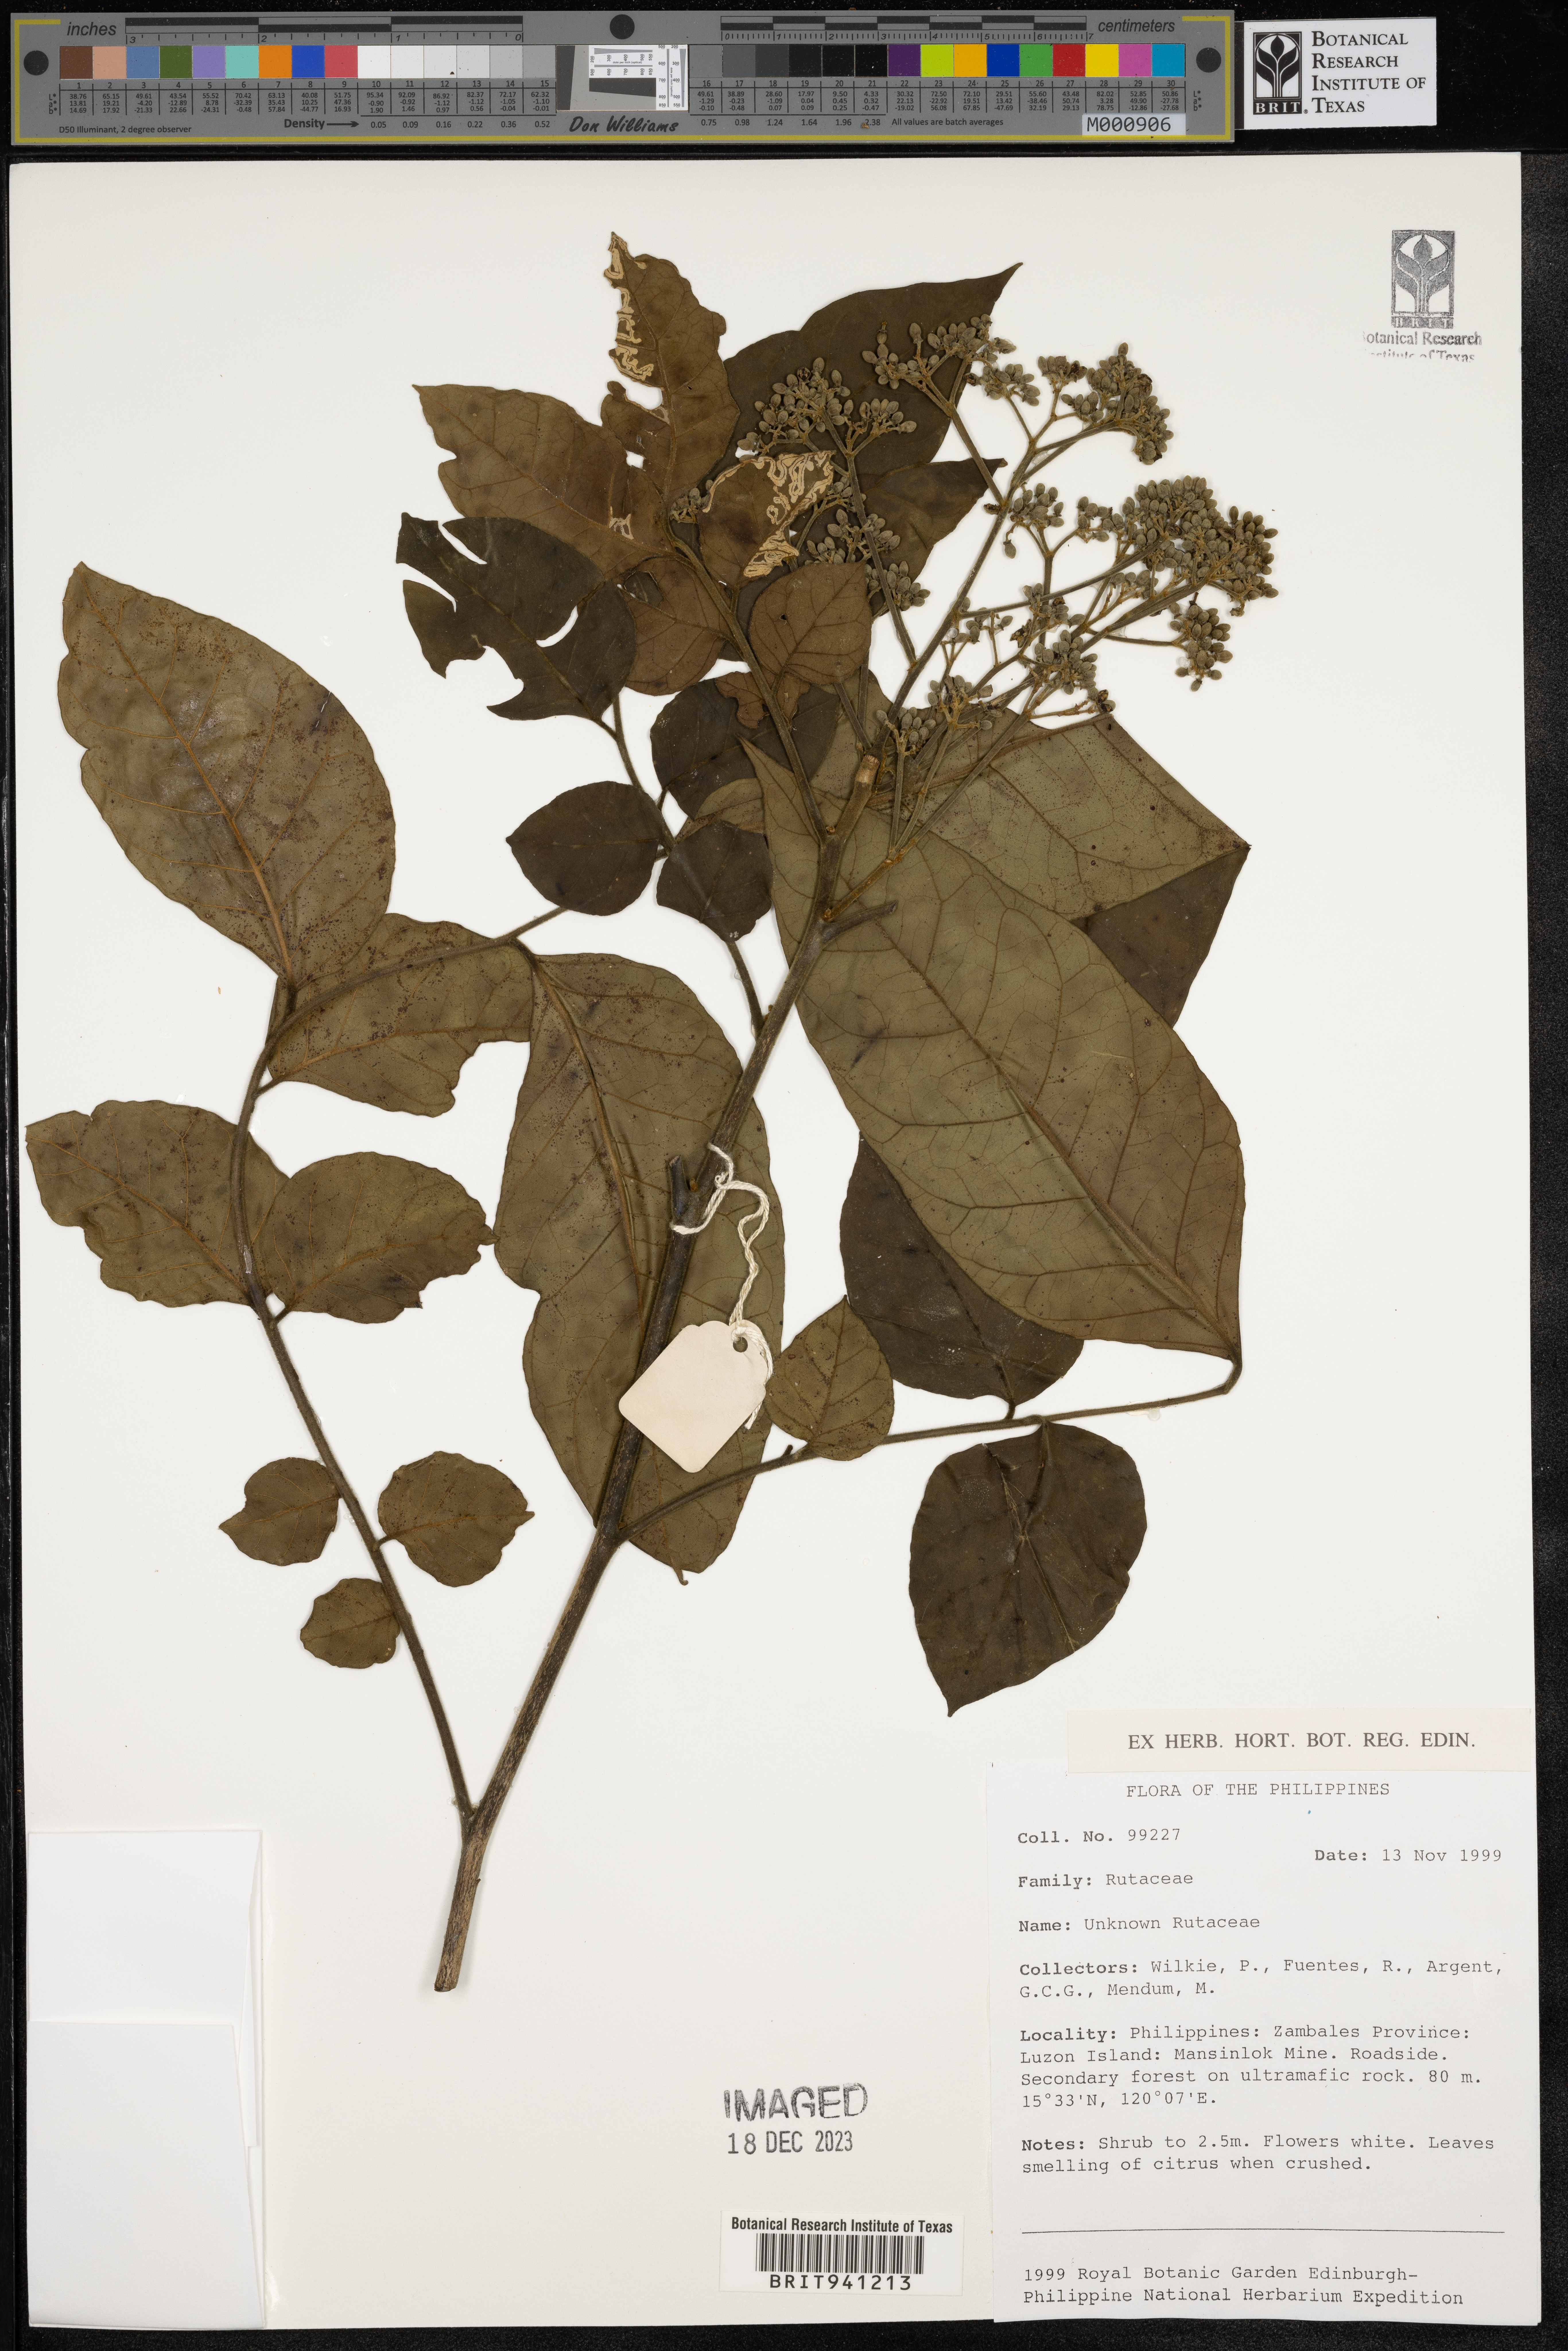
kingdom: Plantae
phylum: Tracheophyta
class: Magnoliopsida
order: Sapindales
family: Rutaceae
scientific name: Rutaceae
